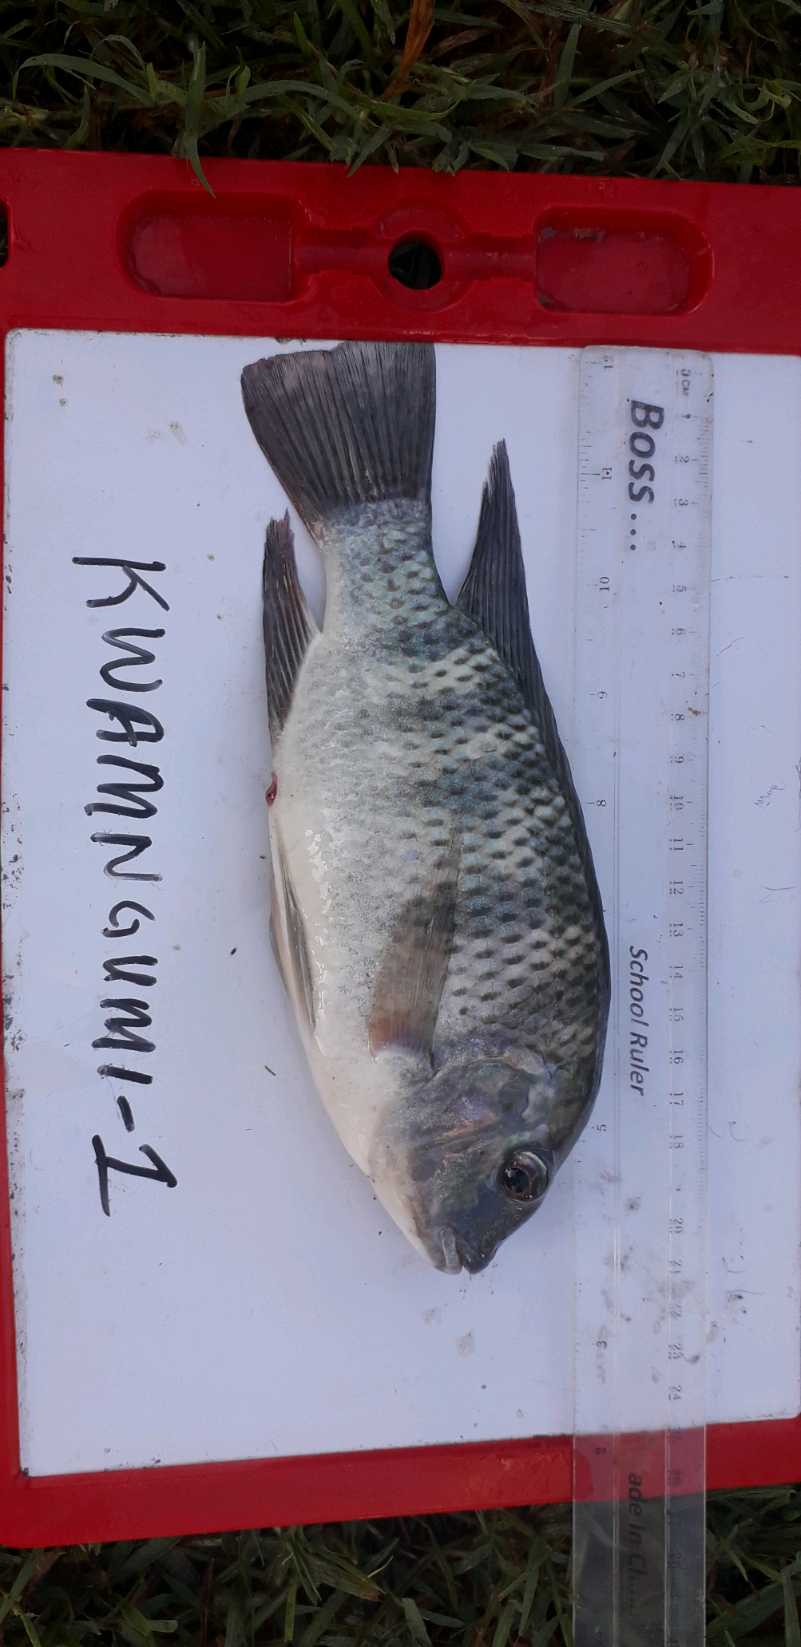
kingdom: Animalia
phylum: Chordata
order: Perciformes
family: Cichlidae
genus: Coptodon
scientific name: Coptodon rendalli
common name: Redbreast tilapia
